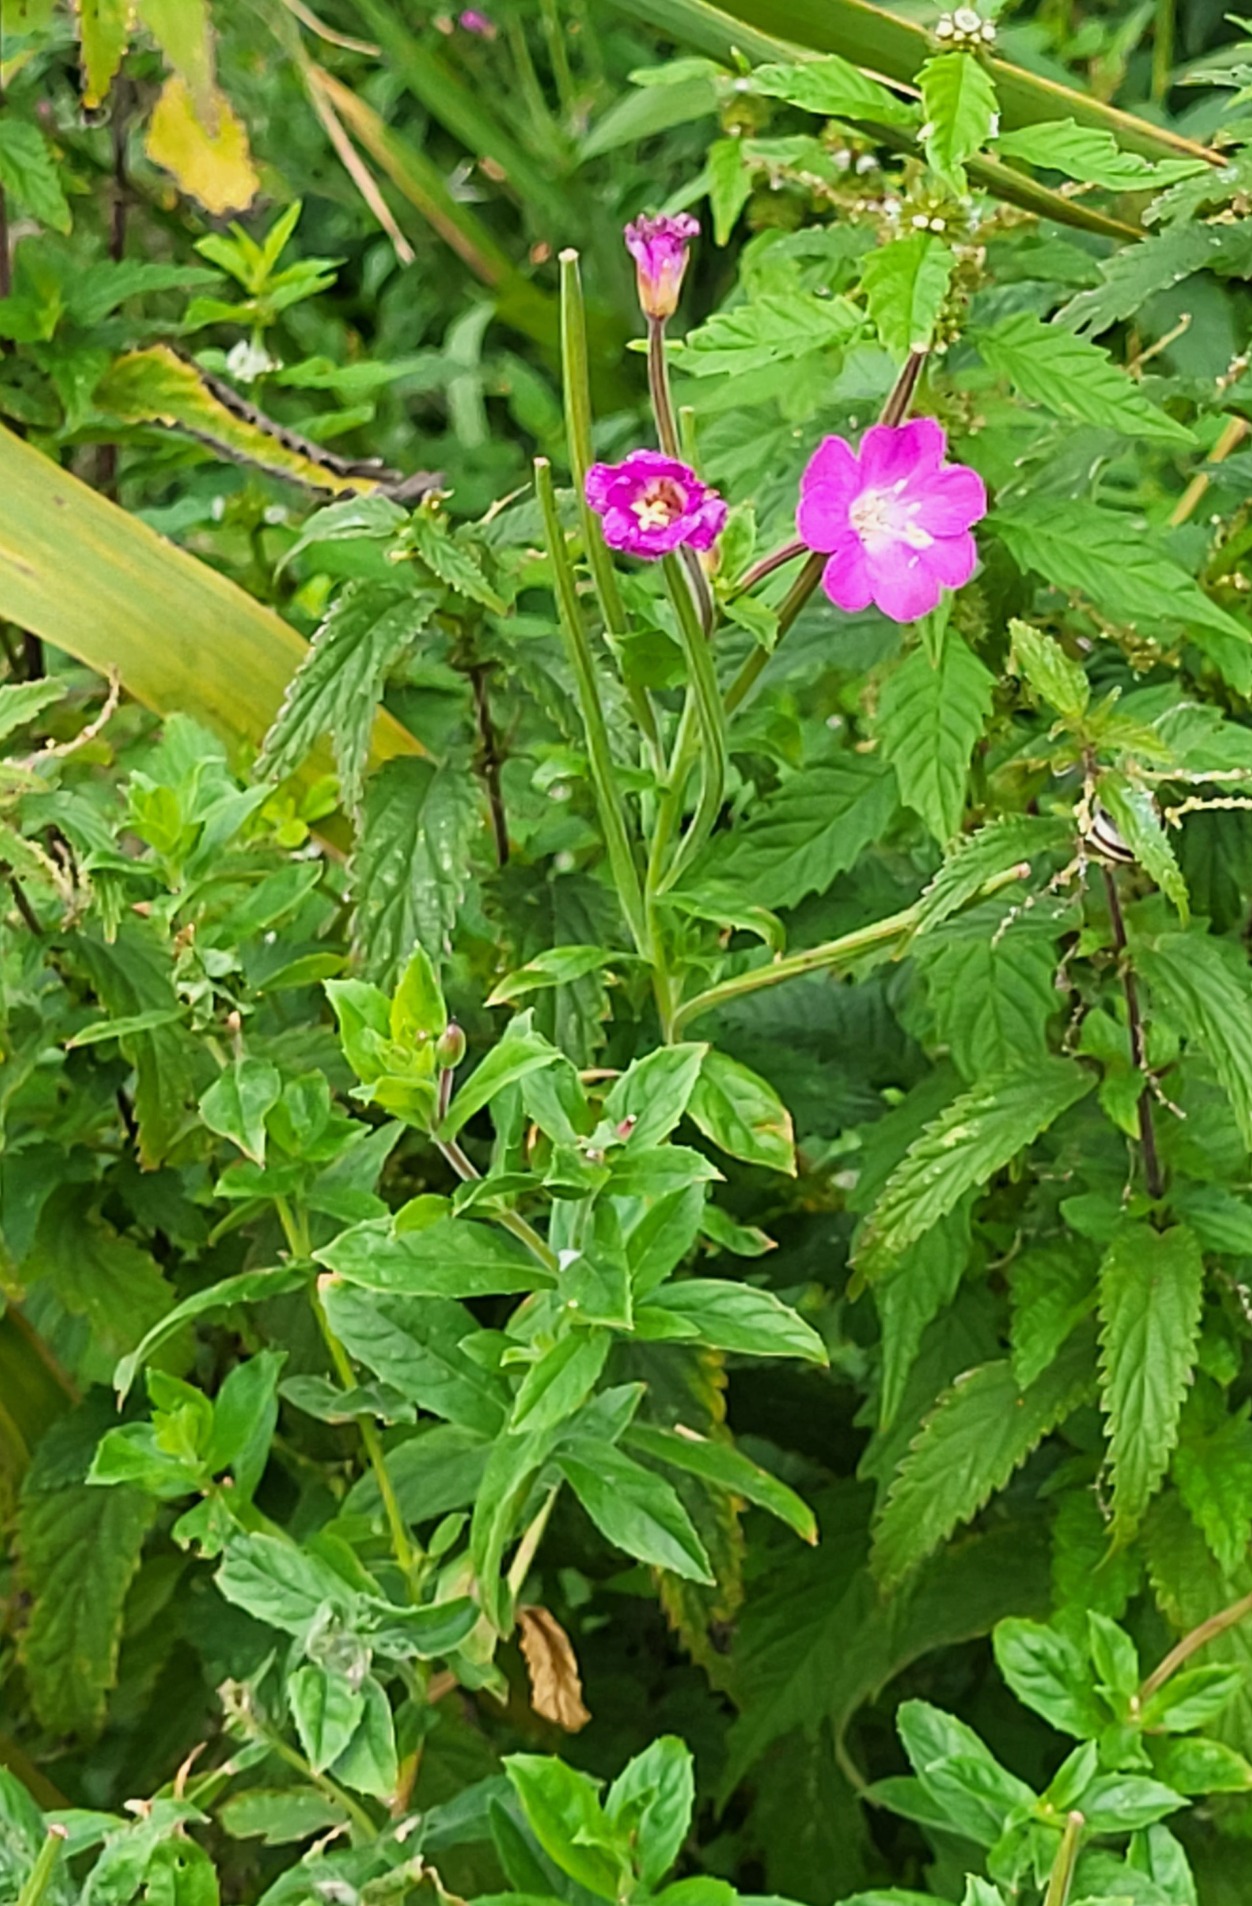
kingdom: Plantae
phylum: Tracheophyta
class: Magnoliopsida
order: Myrtales
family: Onagraceae
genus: Epilobium
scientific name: Epilobium hirsutum
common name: Lådden dueurt
